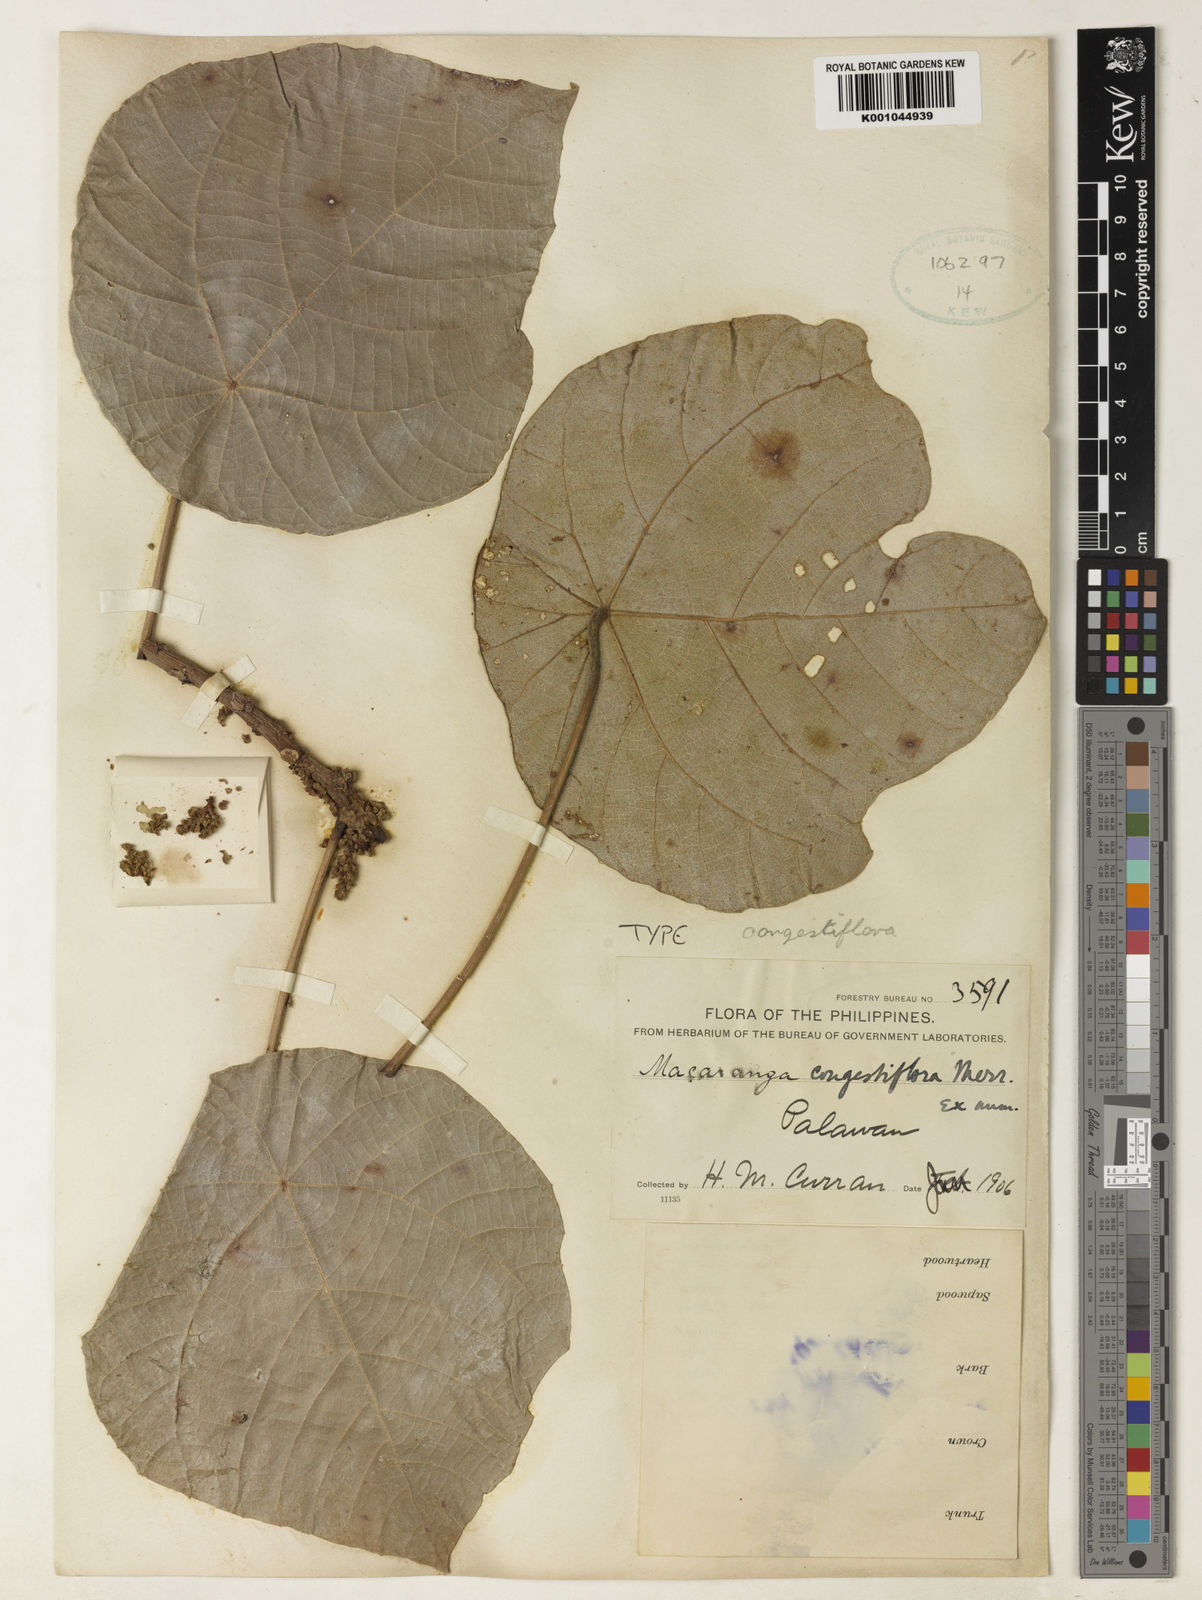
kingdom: Plantae
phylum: Tracheophyta
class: Magnoliopsida
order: Malpighiales
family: Euphorbiaceae
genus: Macaranga
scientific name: Macaranga congestiflora
